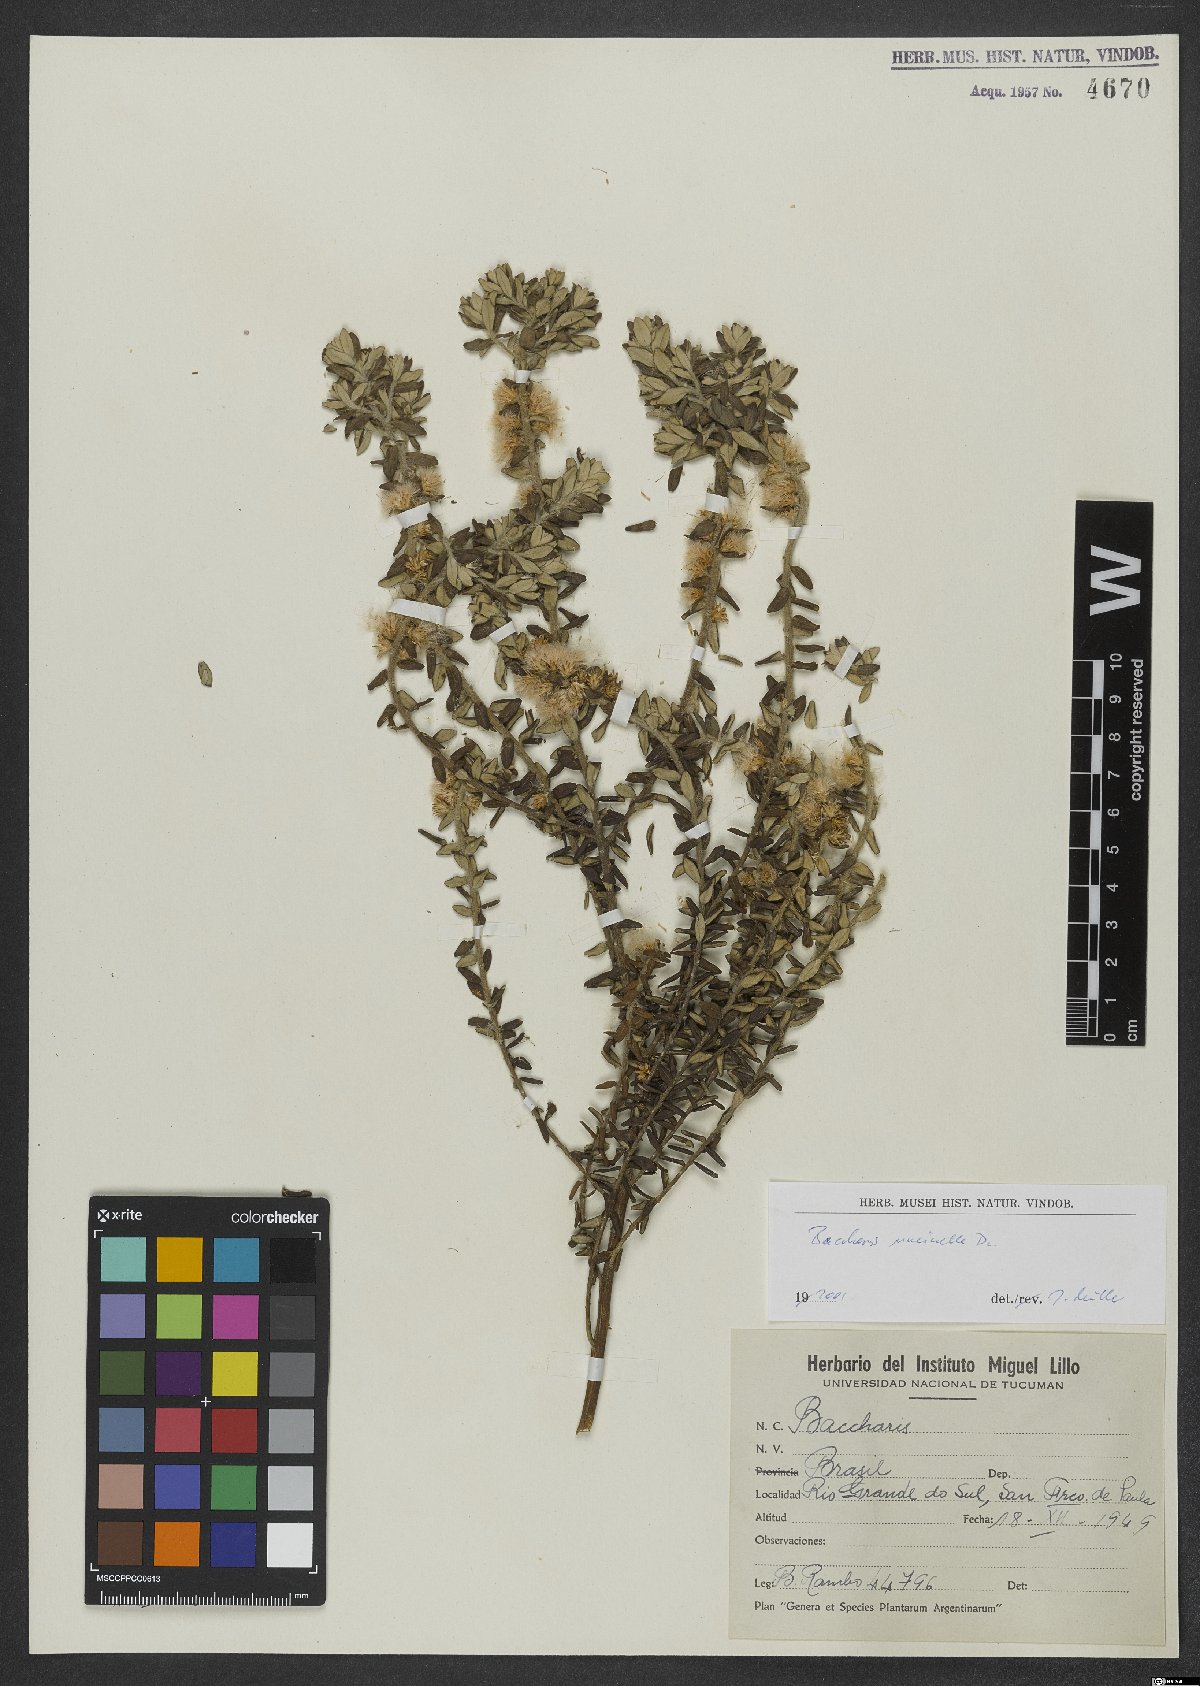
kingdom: Plantae
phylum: Tracheophyta
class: Magnoliopsida
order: Asterales
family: Asteraceae
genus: Baccharis
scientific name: Baccharis uncinella
